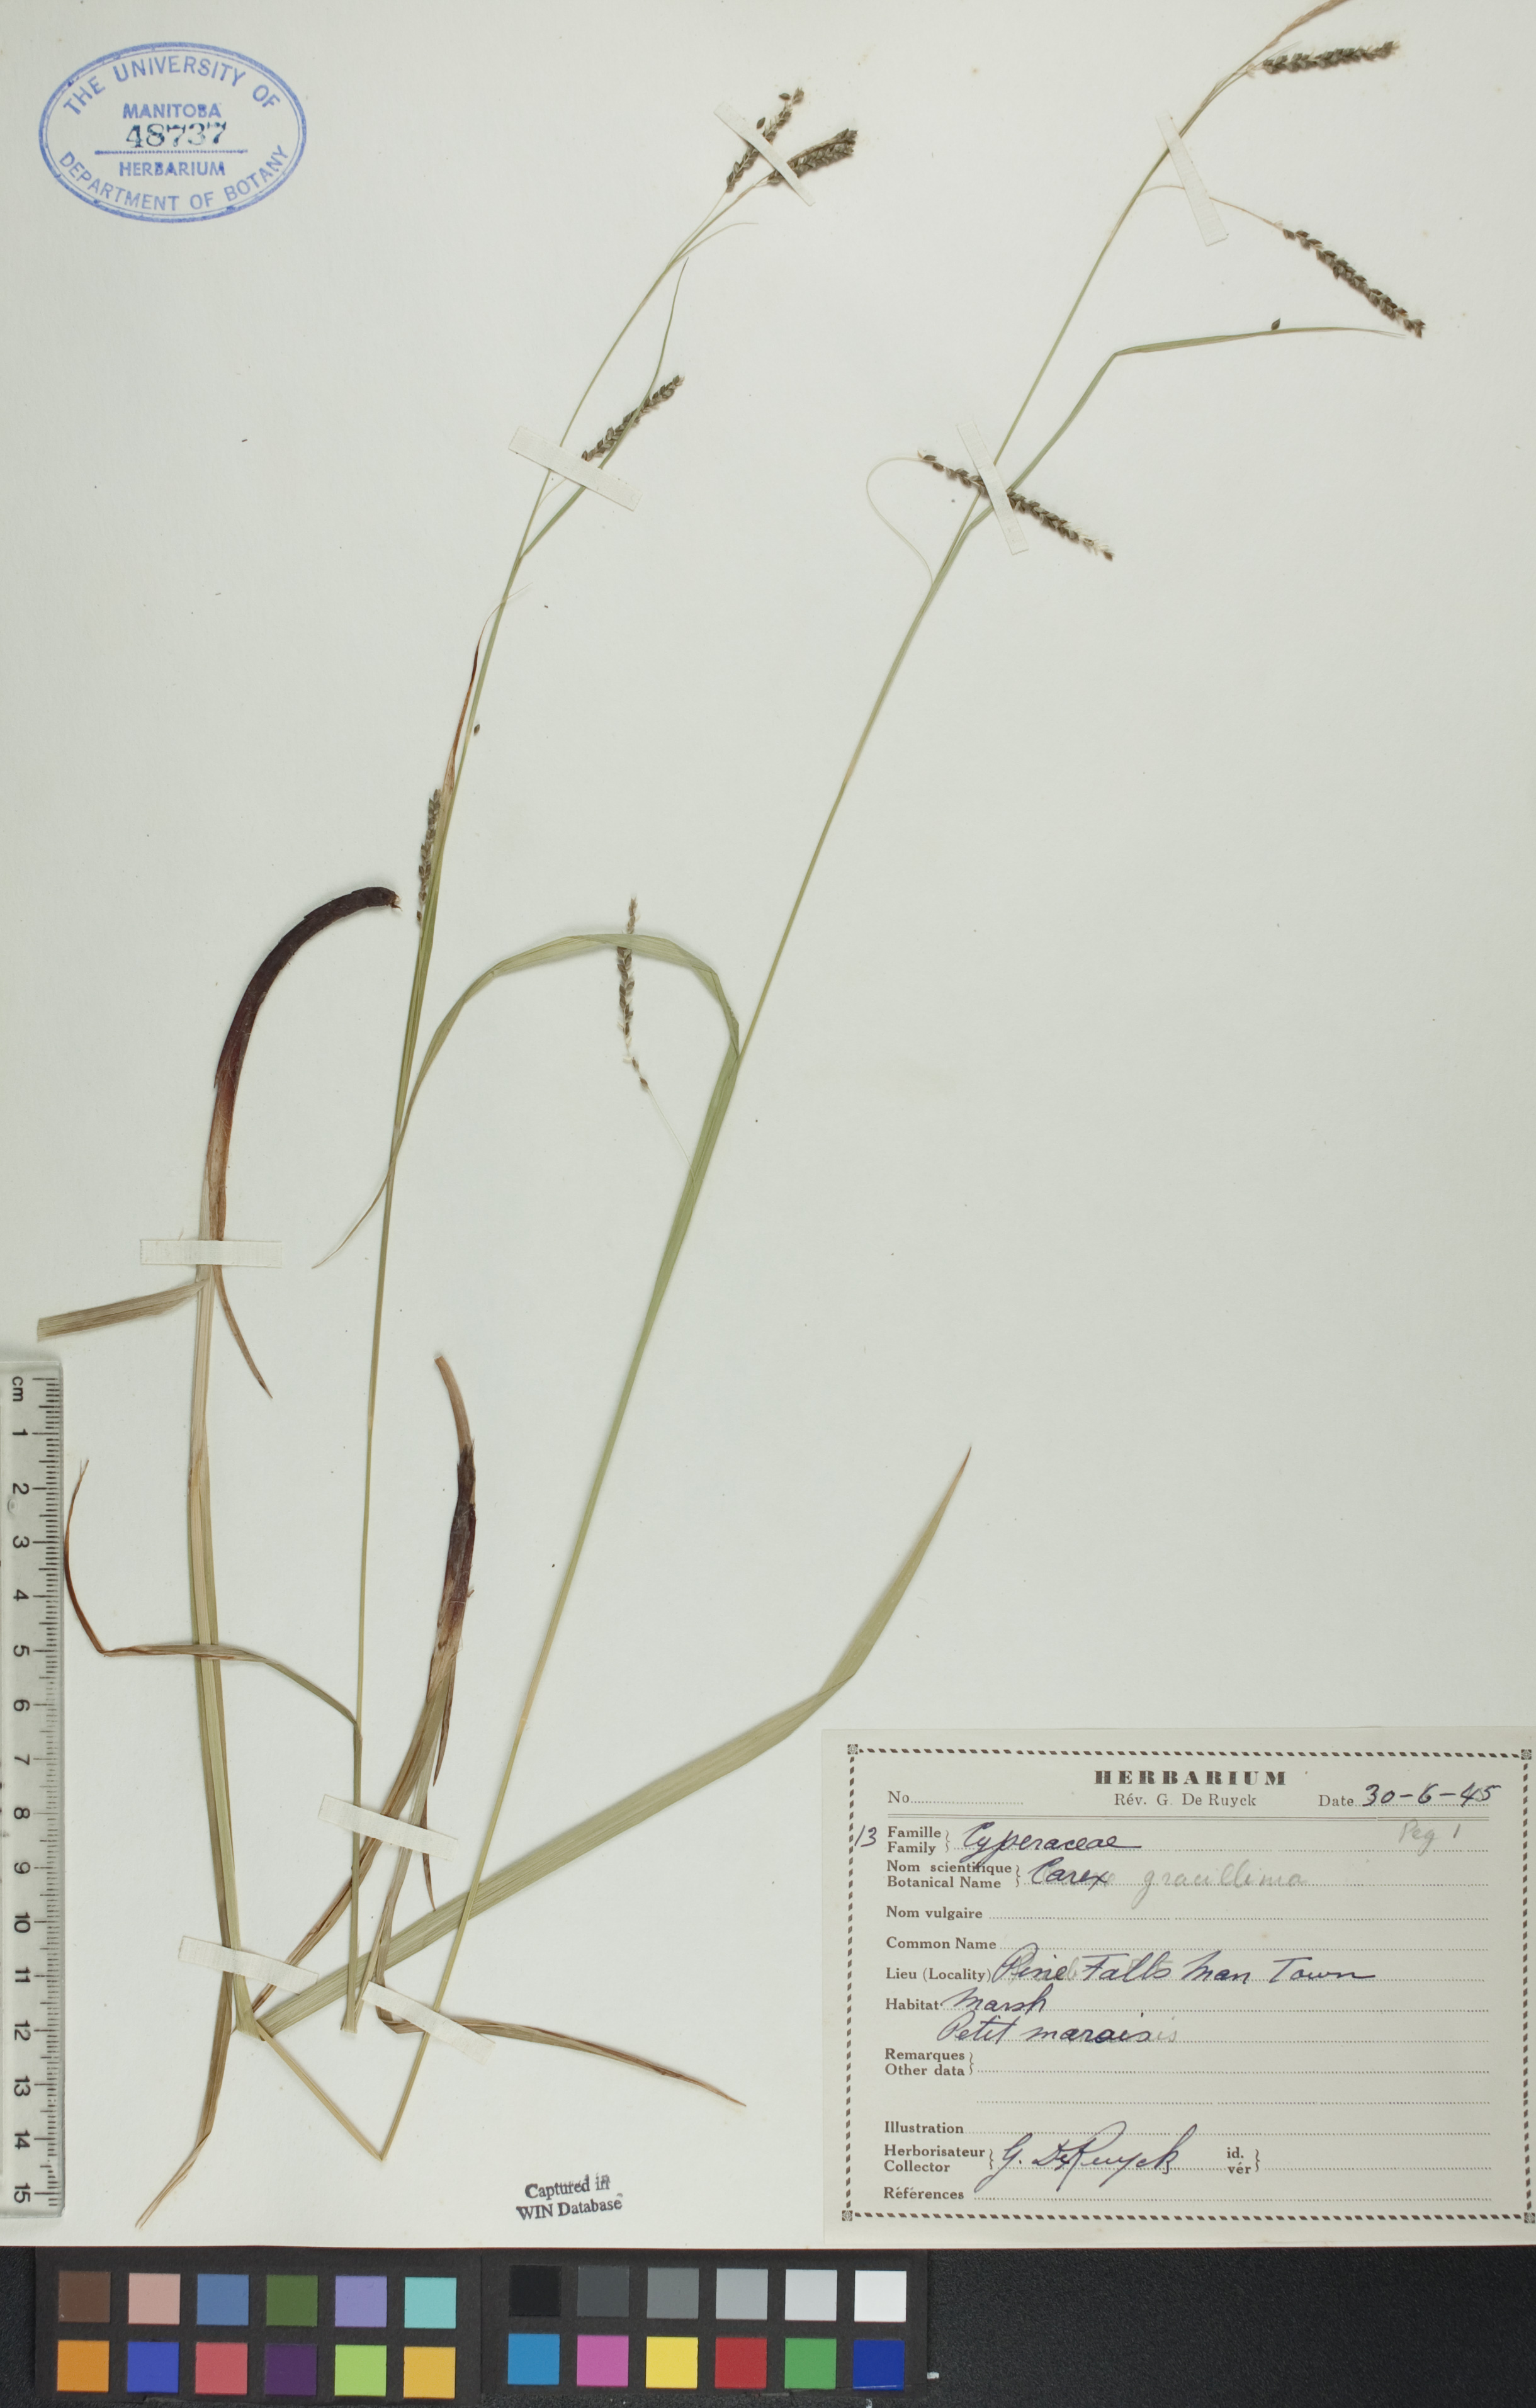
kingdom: Plantae
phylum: Tracheophyta
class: Liliopsida
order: Poales
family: Cyperaceae
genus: Carex
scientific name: Carex gracillima
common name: Graceful sedge
